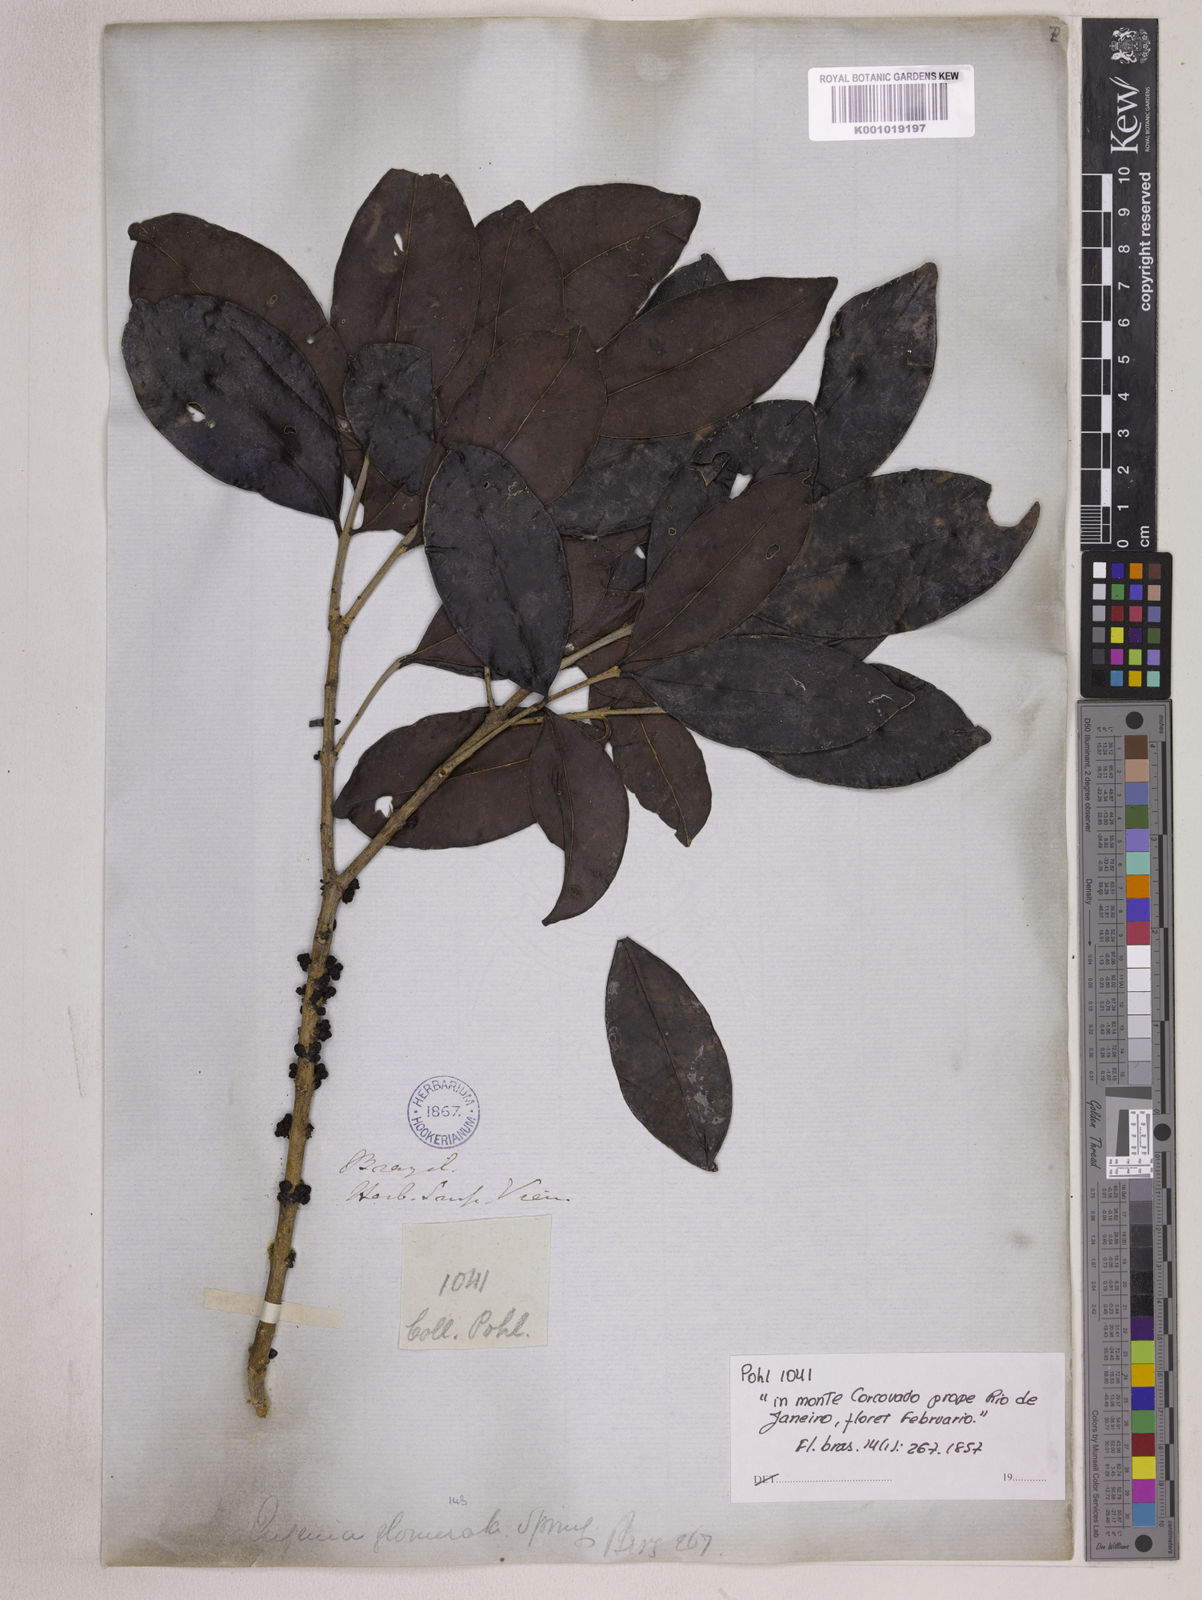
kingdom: Plantae
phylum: Tracheophyta
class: Magnoliopsida
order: Myrtales
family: Myrtaceae
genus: Eugenia
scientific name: Eugenia neoglomerata
